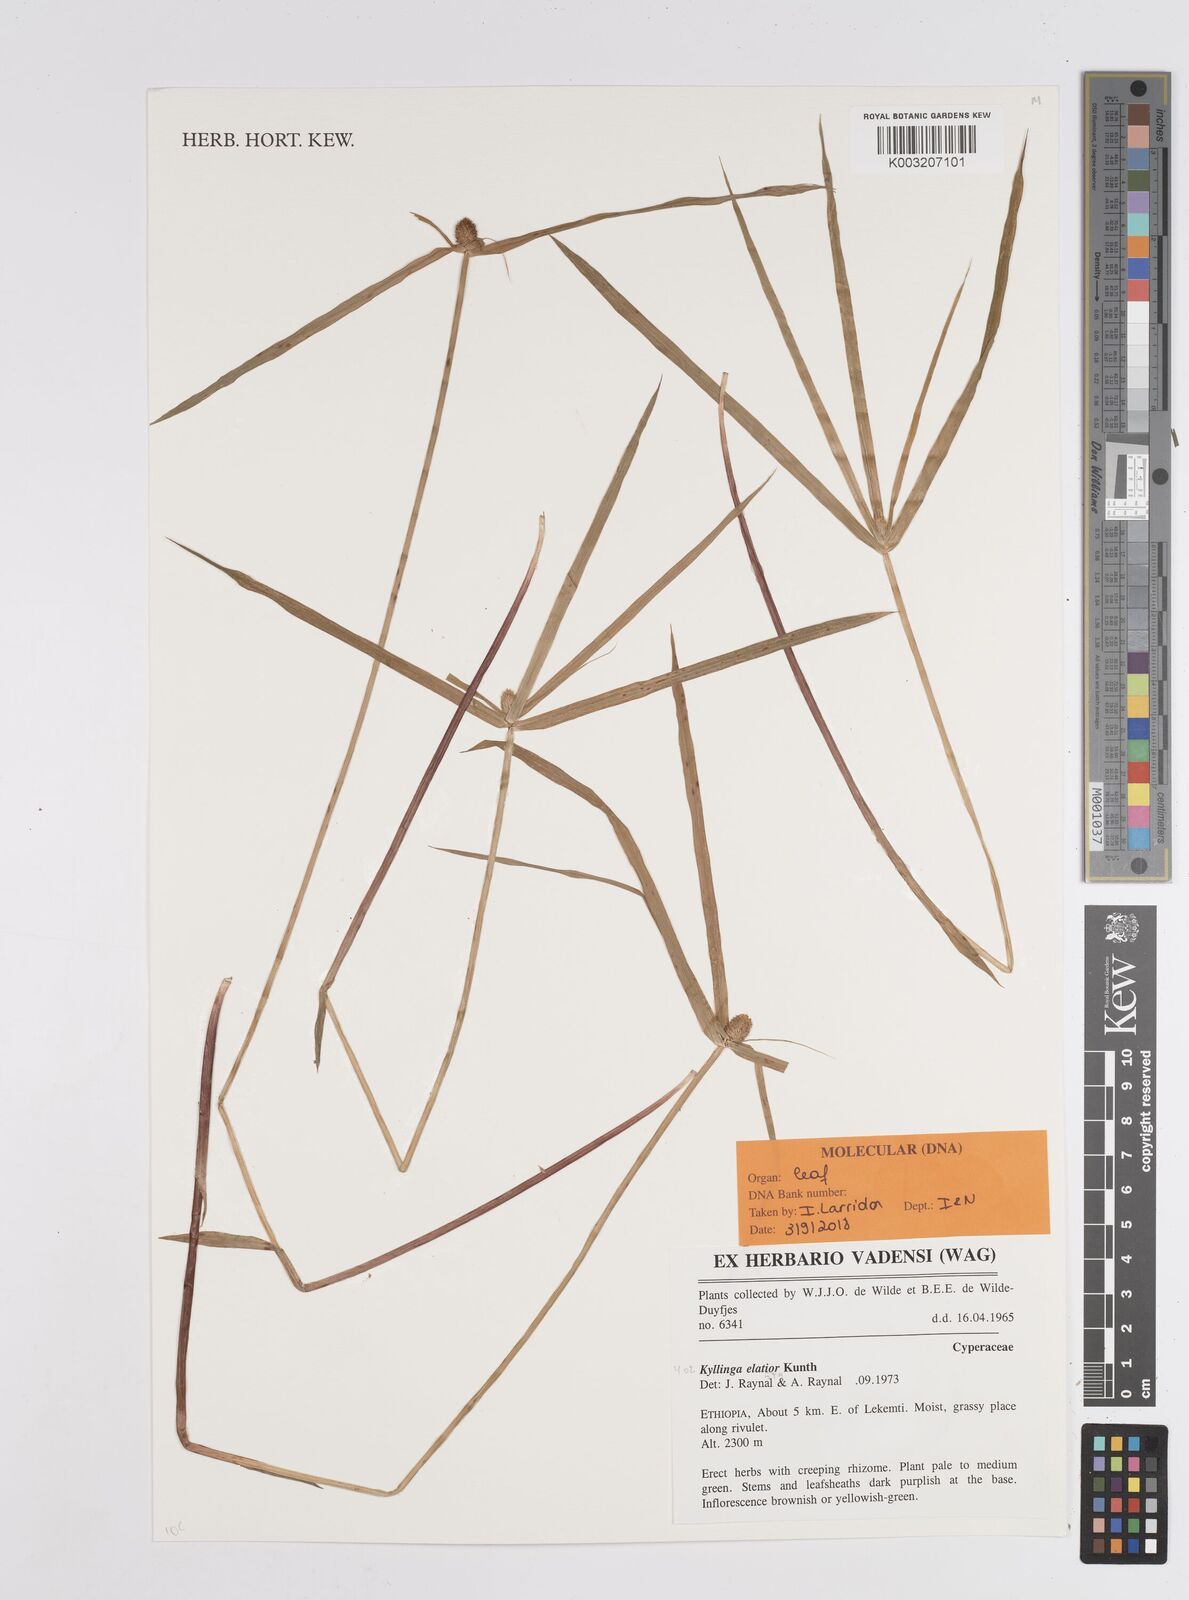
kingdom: Plantae
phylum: Tracheophyta
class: Liliopsida
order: Poales
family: Cyperaceae
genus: Cyperus
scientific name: Cyperus
